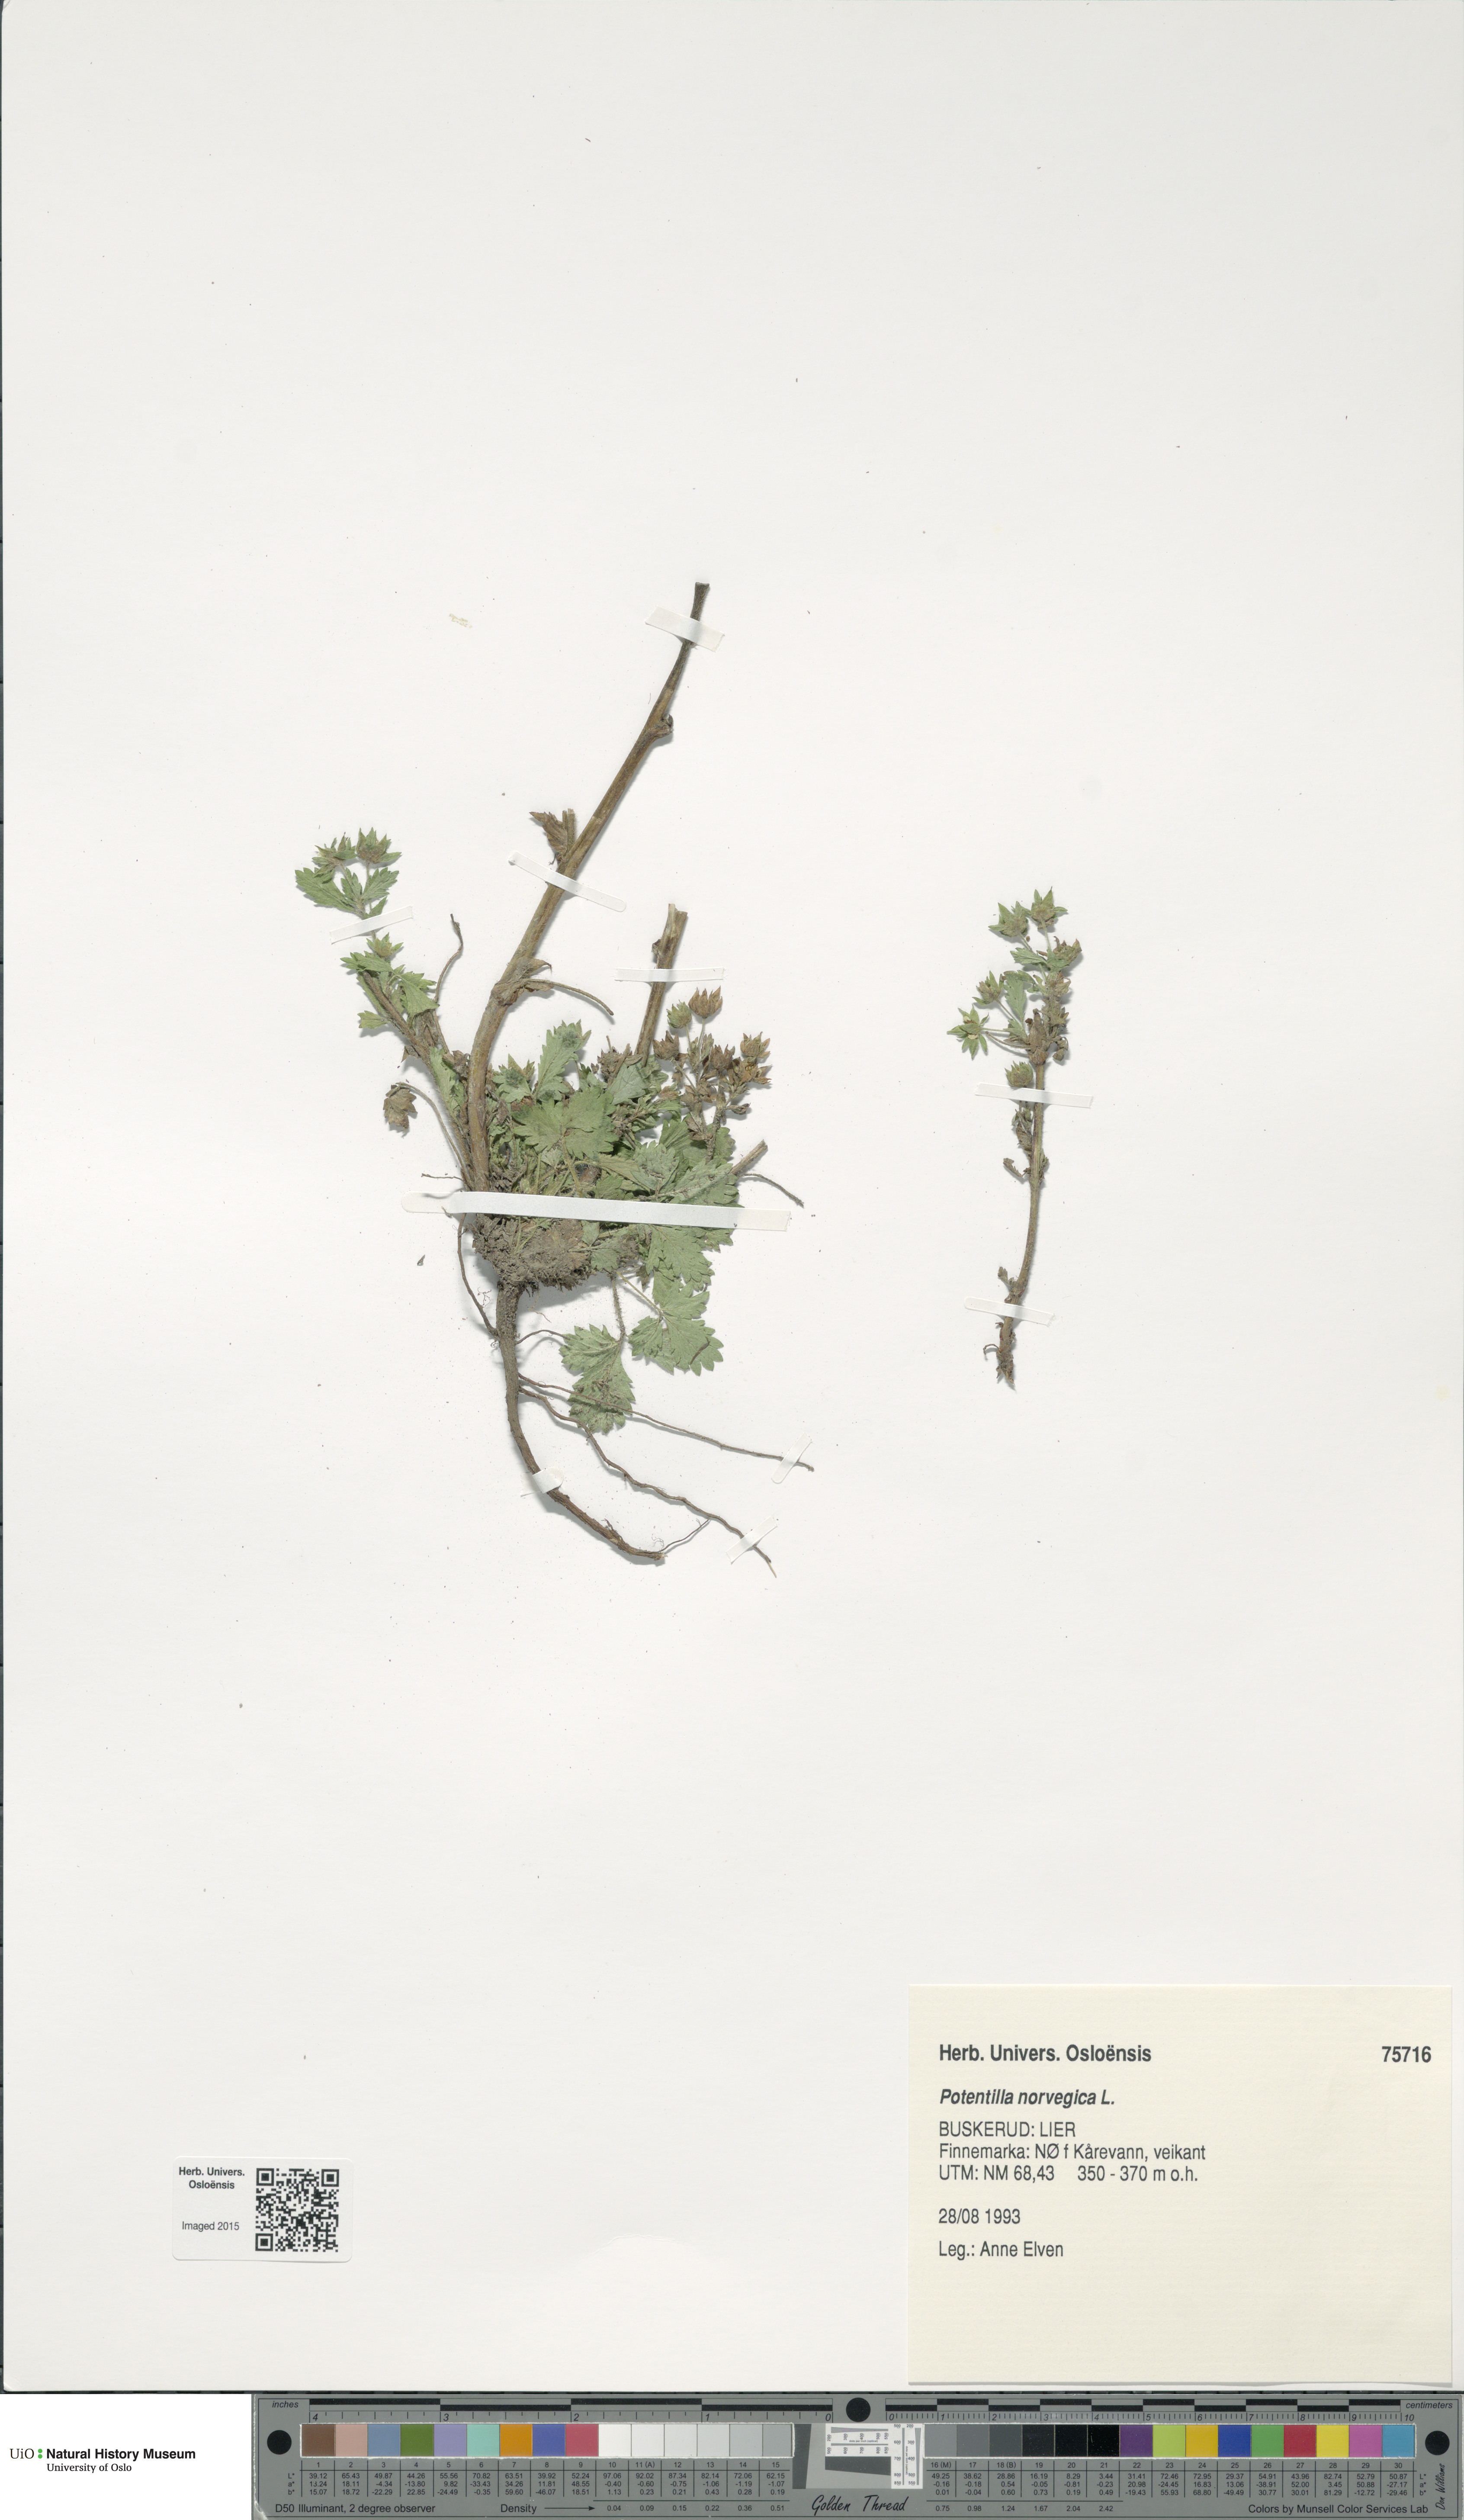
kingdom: Plantae
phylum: Tracheophyta
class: Magnoliopsida
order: Rosales
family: Rosaceae
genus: Potentilla
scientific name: Potentilla norvegica
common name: Ternate-leaved cinquefoil
